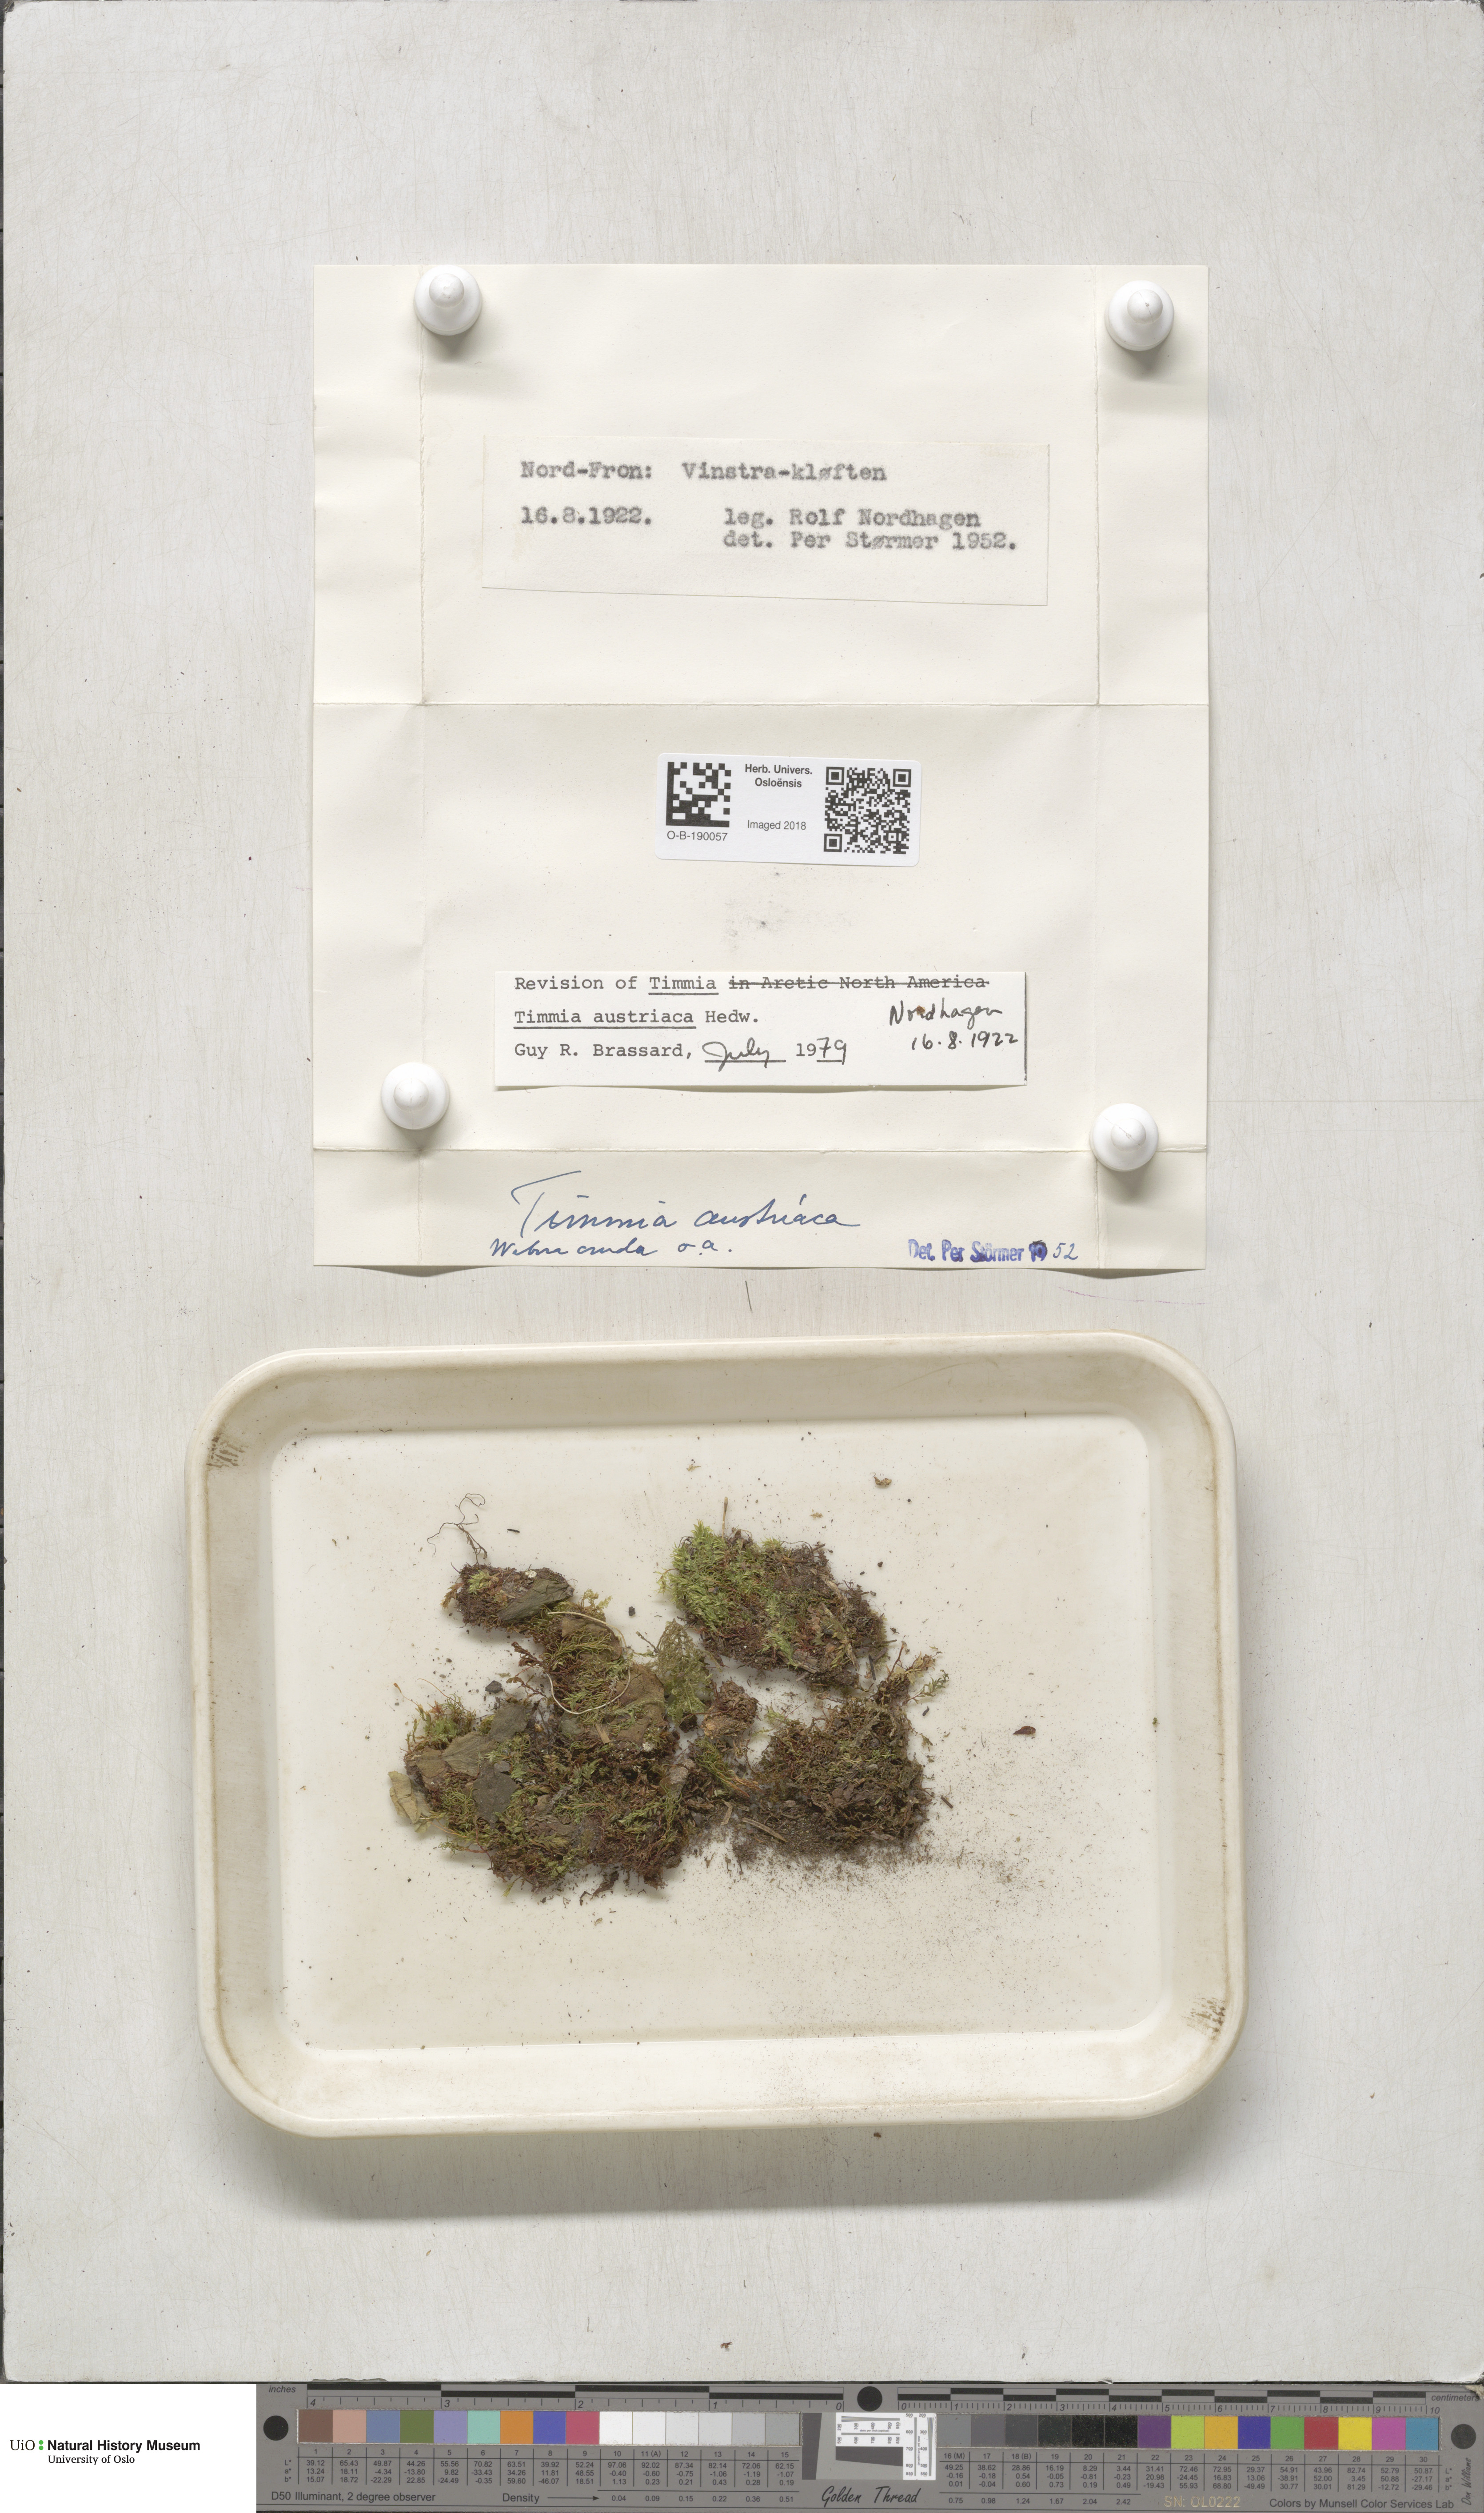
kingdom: Plantae
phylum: Bryophyta
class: Bryopsida
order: Timmiales
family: Timmiaceae
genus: Timmia
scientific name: Timmia austriaca
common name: Austrian timmia
